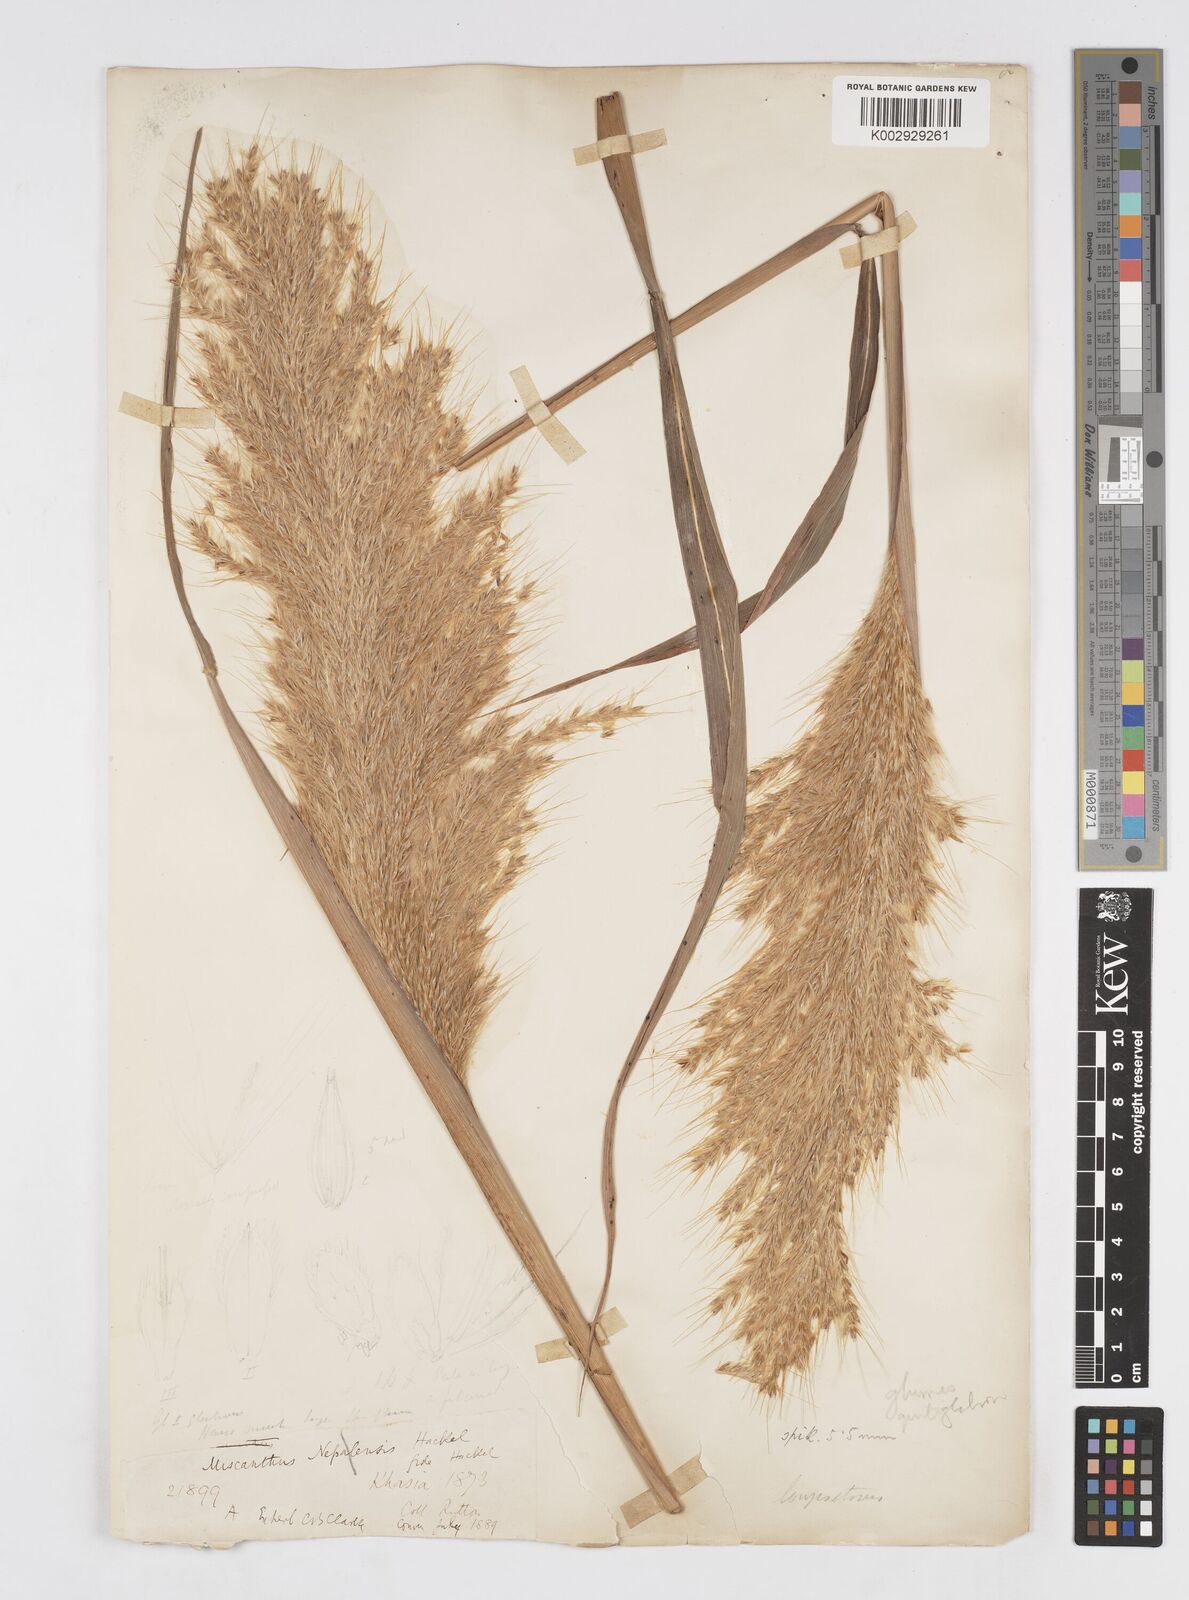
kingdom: Plantae
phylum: Tracheophyta
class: Liliopsida
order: Poales
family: Poaceae
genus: Saccharum
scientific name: Saccharum
